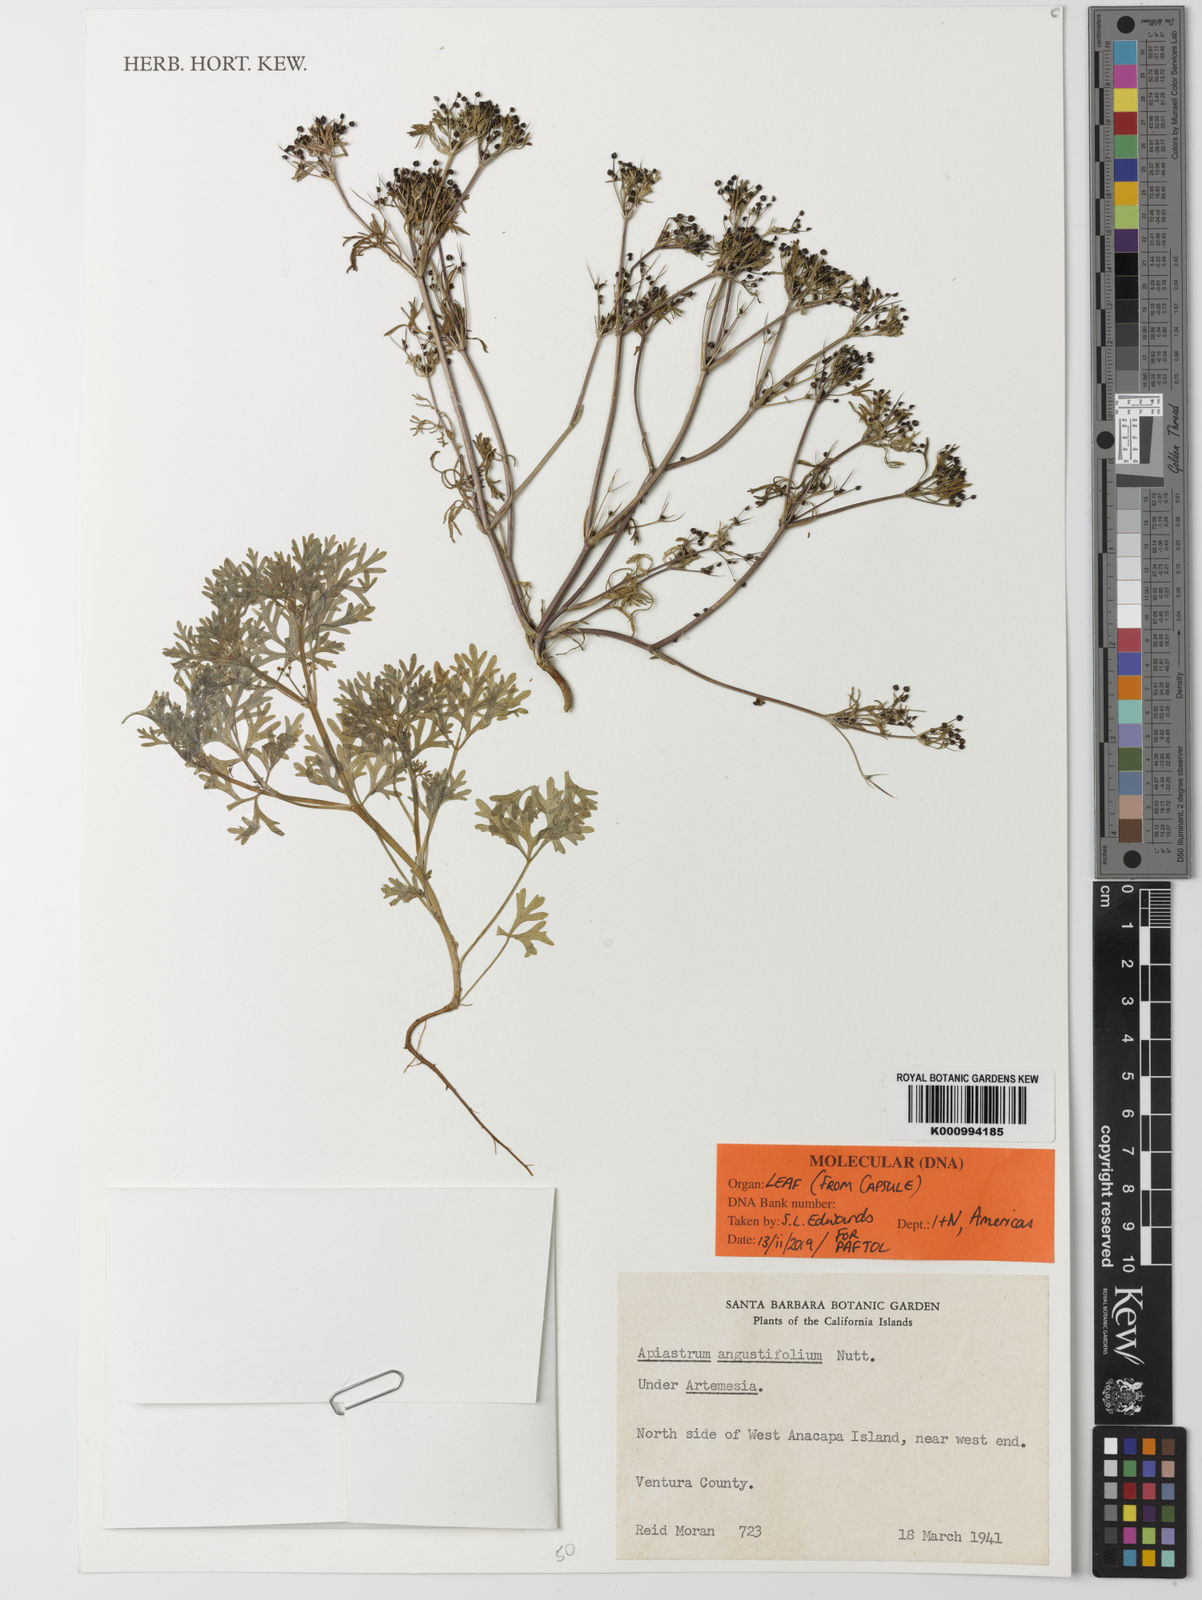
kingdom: Plantae
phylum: Tracheophyta
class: Magnoliopsida
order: Apiales
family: Apiaceae
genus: Apiastrum
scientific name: Apiastrum angustifolium
